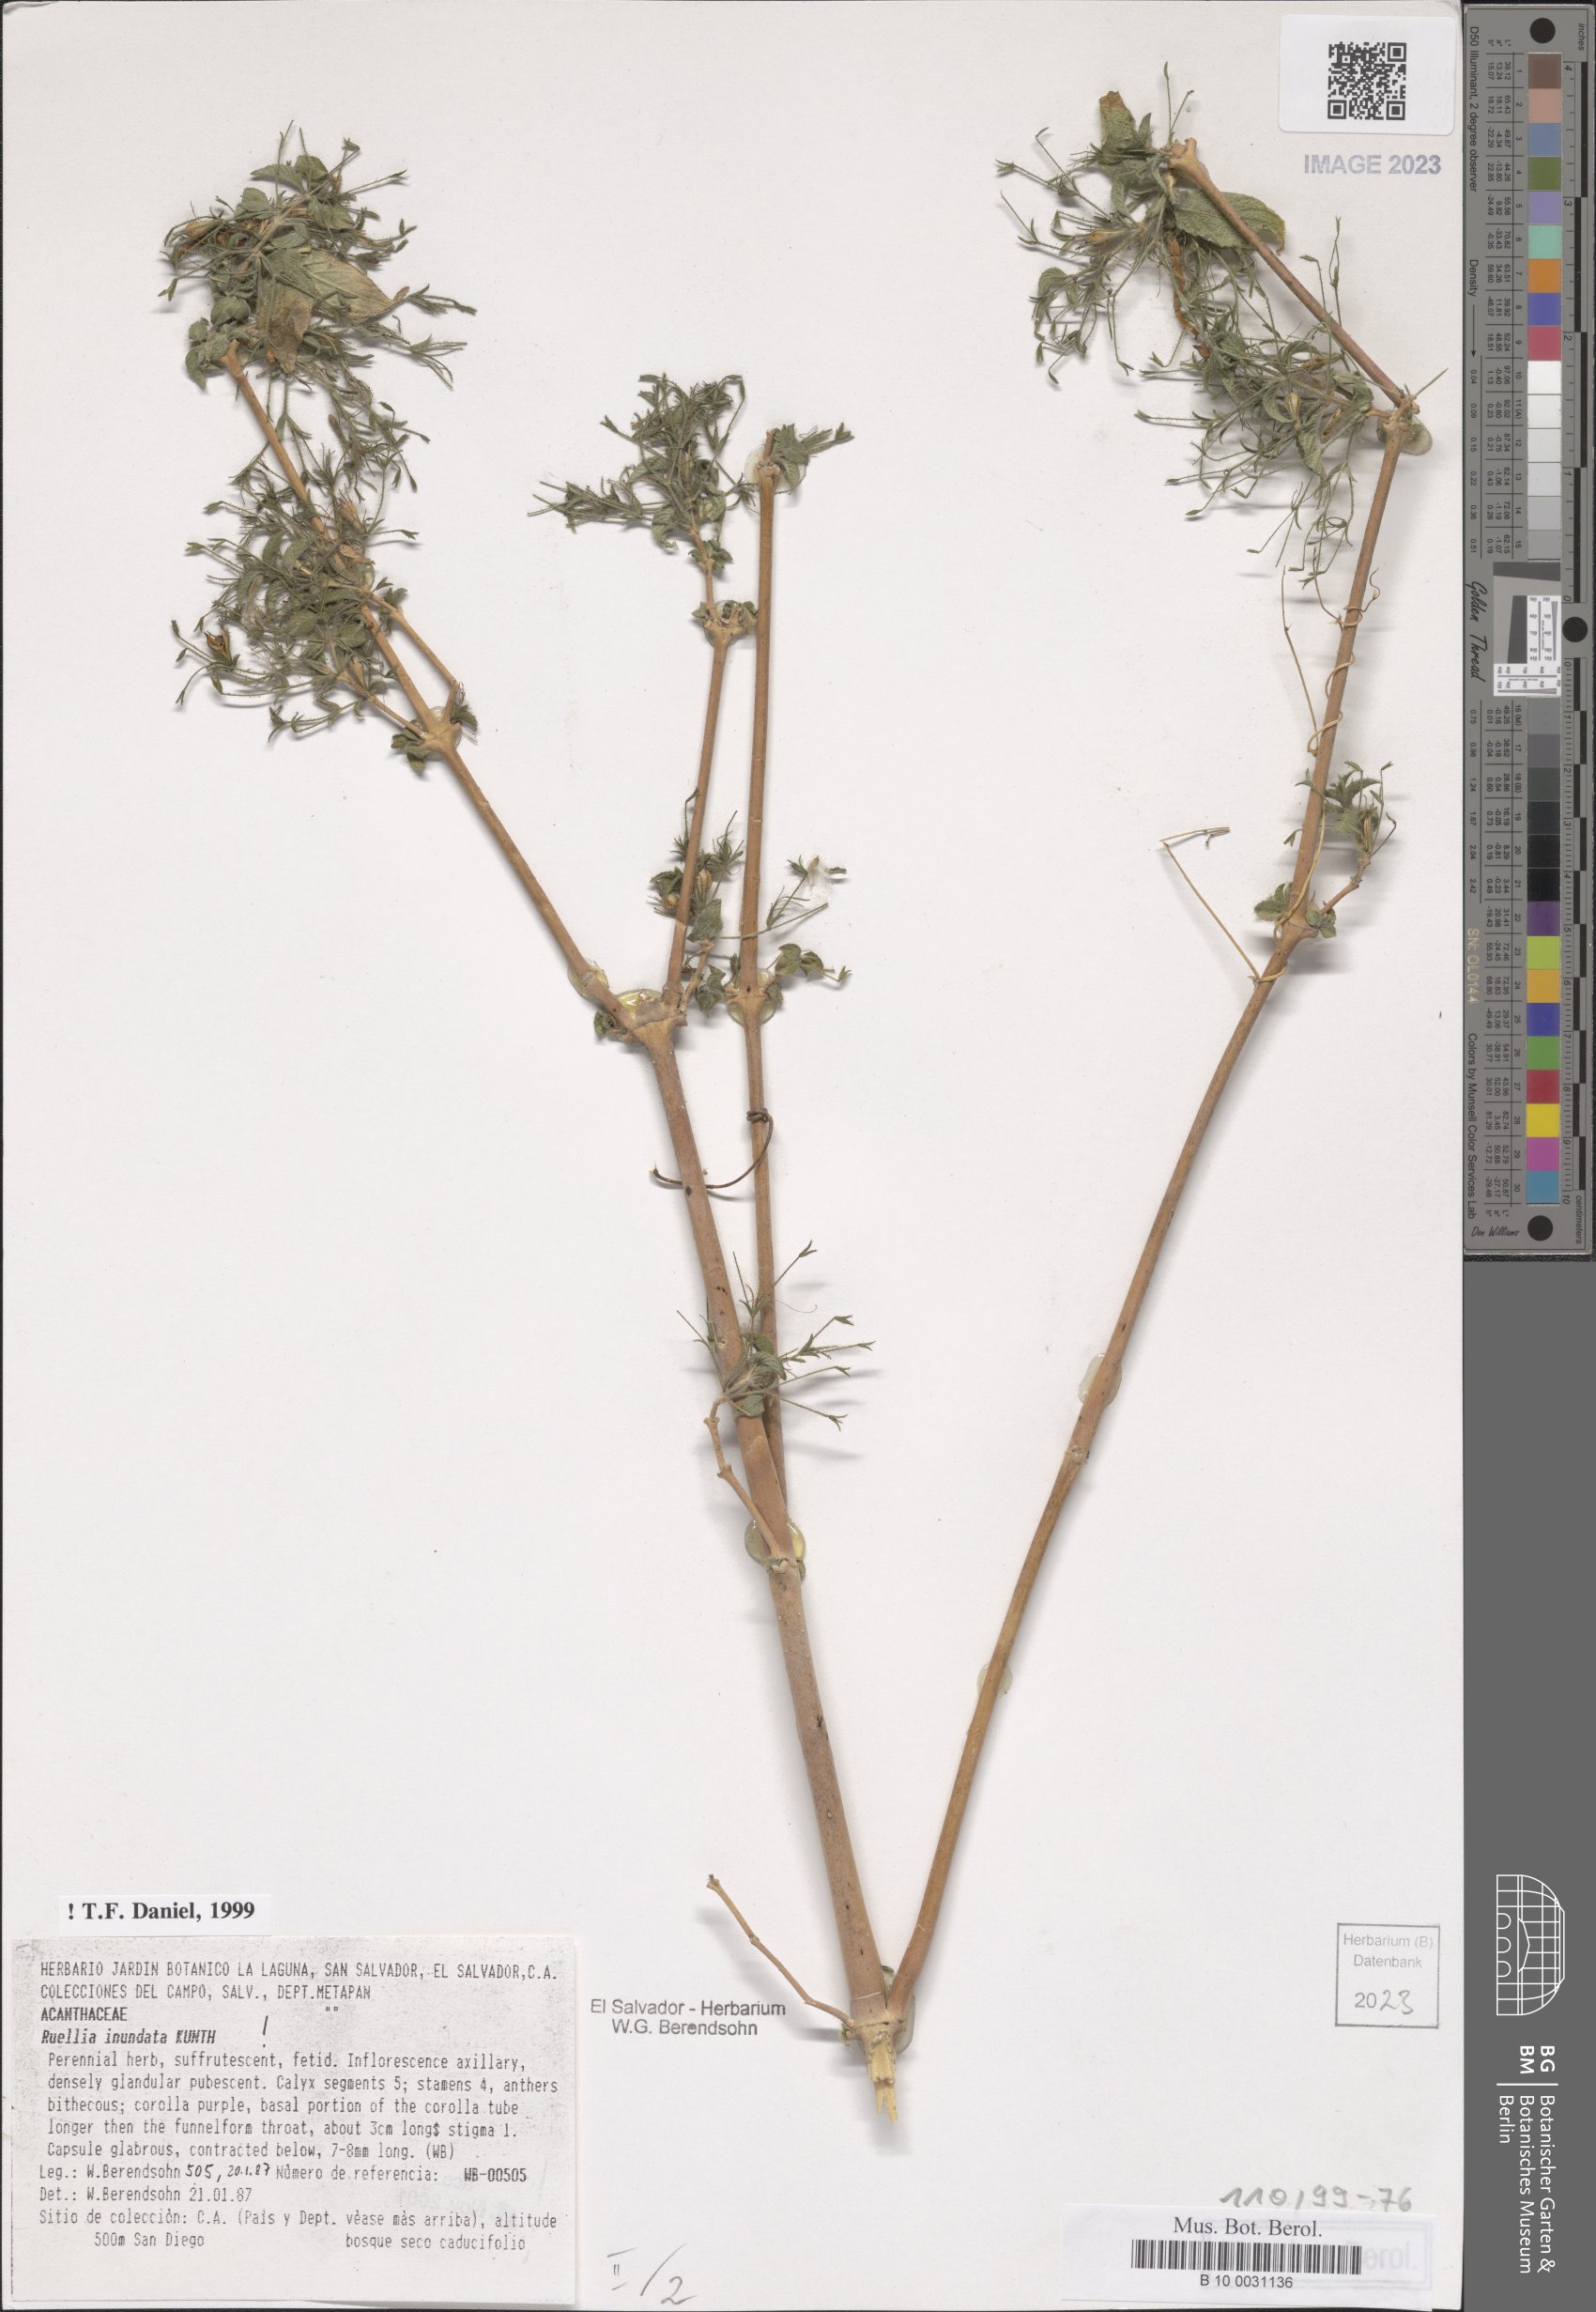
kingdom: Plantae
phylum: Tracheophyta
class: Magnoliopsida
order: Lamiales
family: Acanthaceae
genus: Ruellia
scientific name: Ruellia inundata
